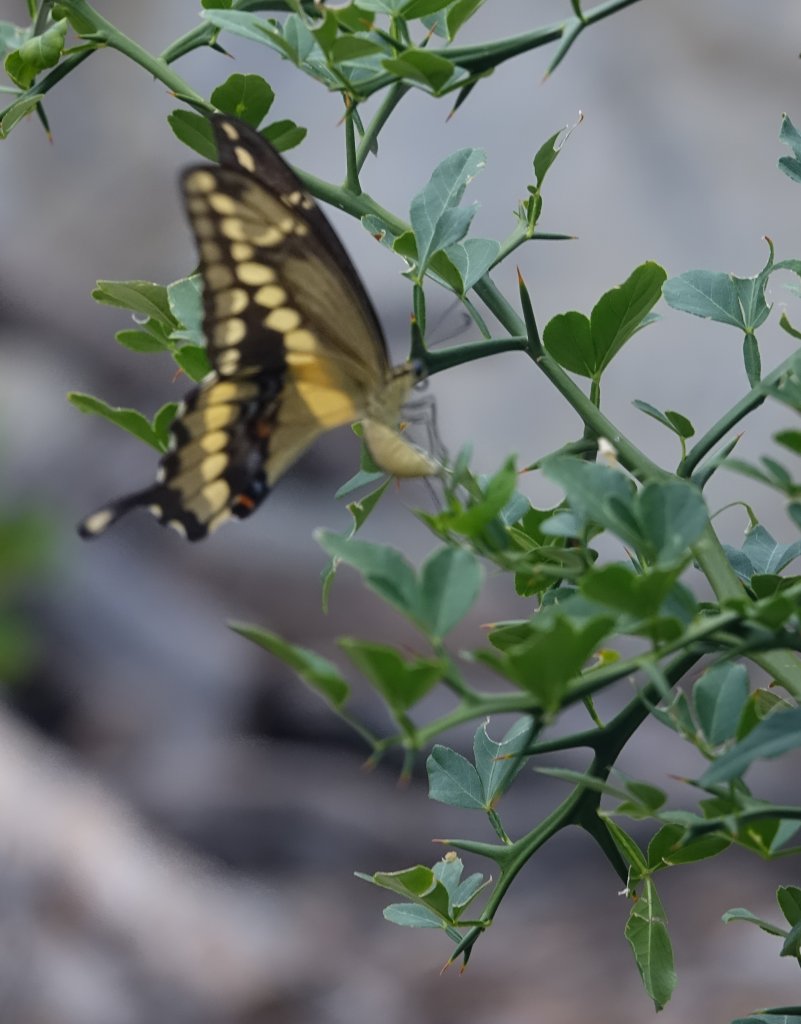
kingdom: Animalia
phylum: Arthropoda
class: Insecta
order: Lepidoptera
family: Papilionidae
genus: Papilio
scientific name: Papilio rumiko
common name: Western Giant Swallowtail
